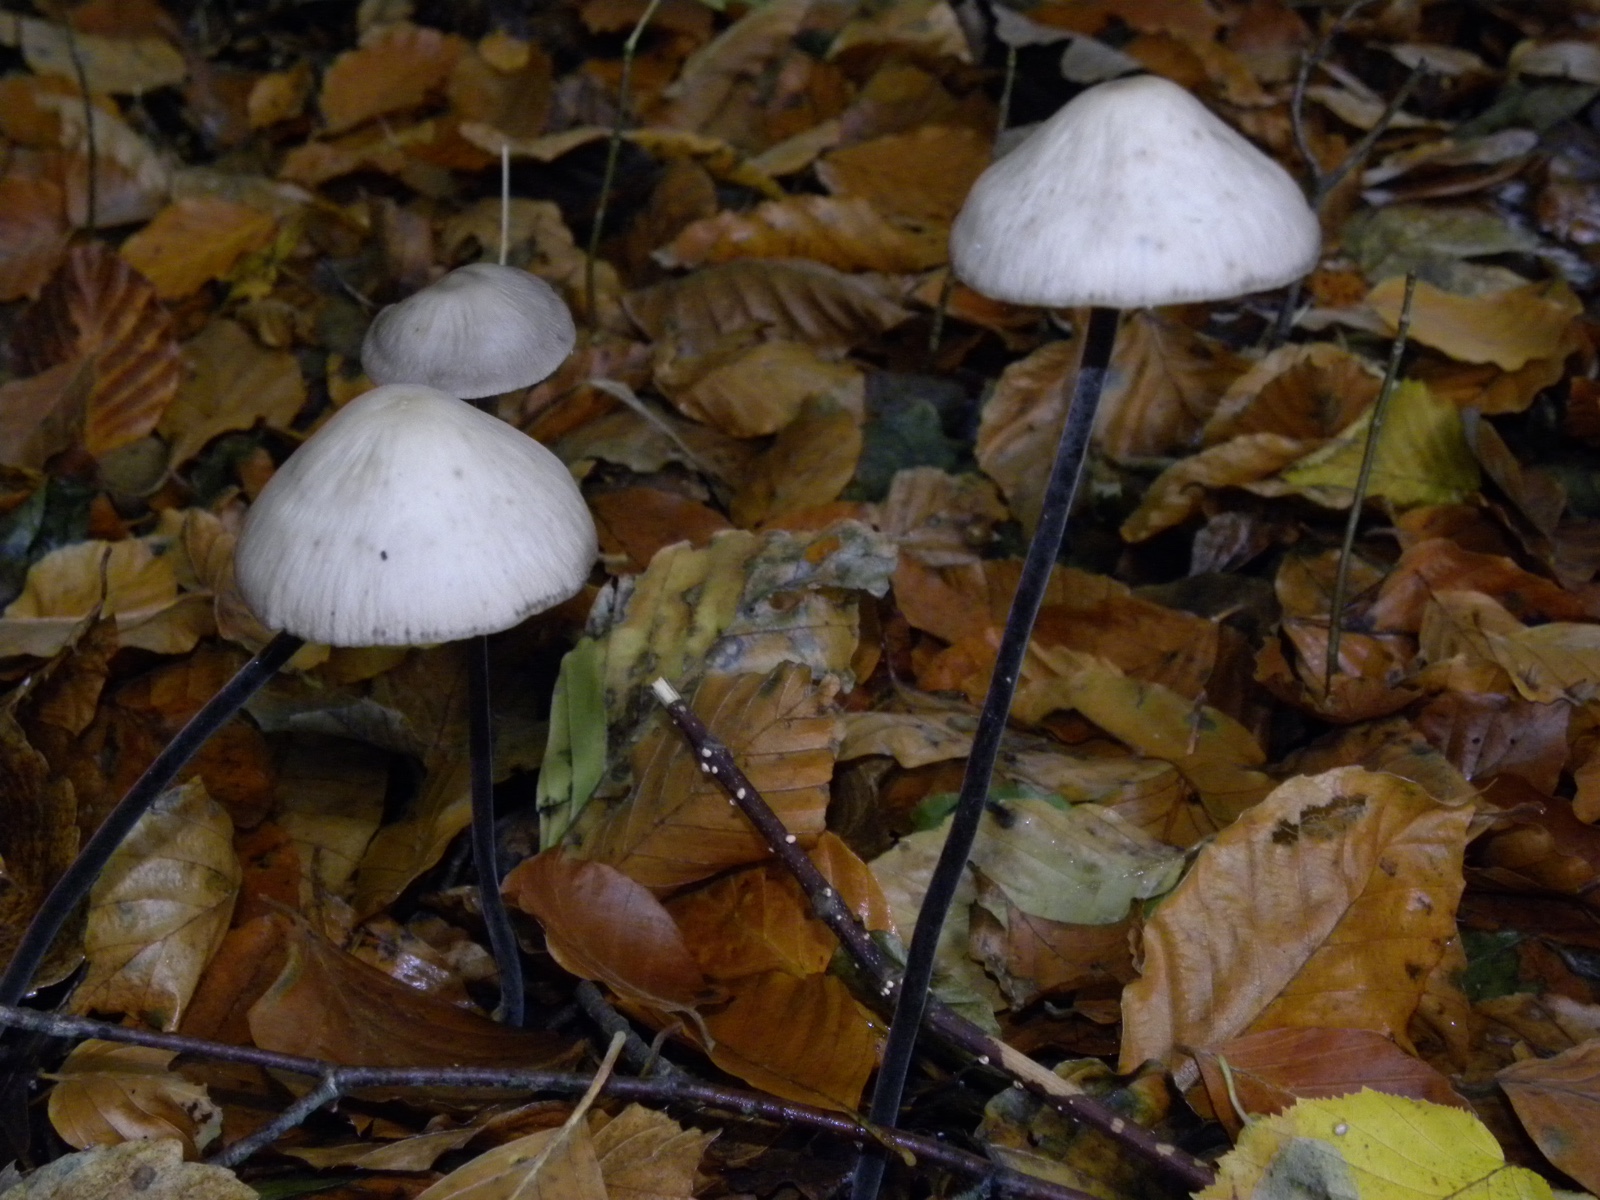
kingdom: Fungi
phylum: Basidiomycota
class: Agaricomycetes
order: Agaricales
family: Omphalotaceae
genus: Mycetinis
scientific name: Mycetinis alliaceus
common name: stor løghat
